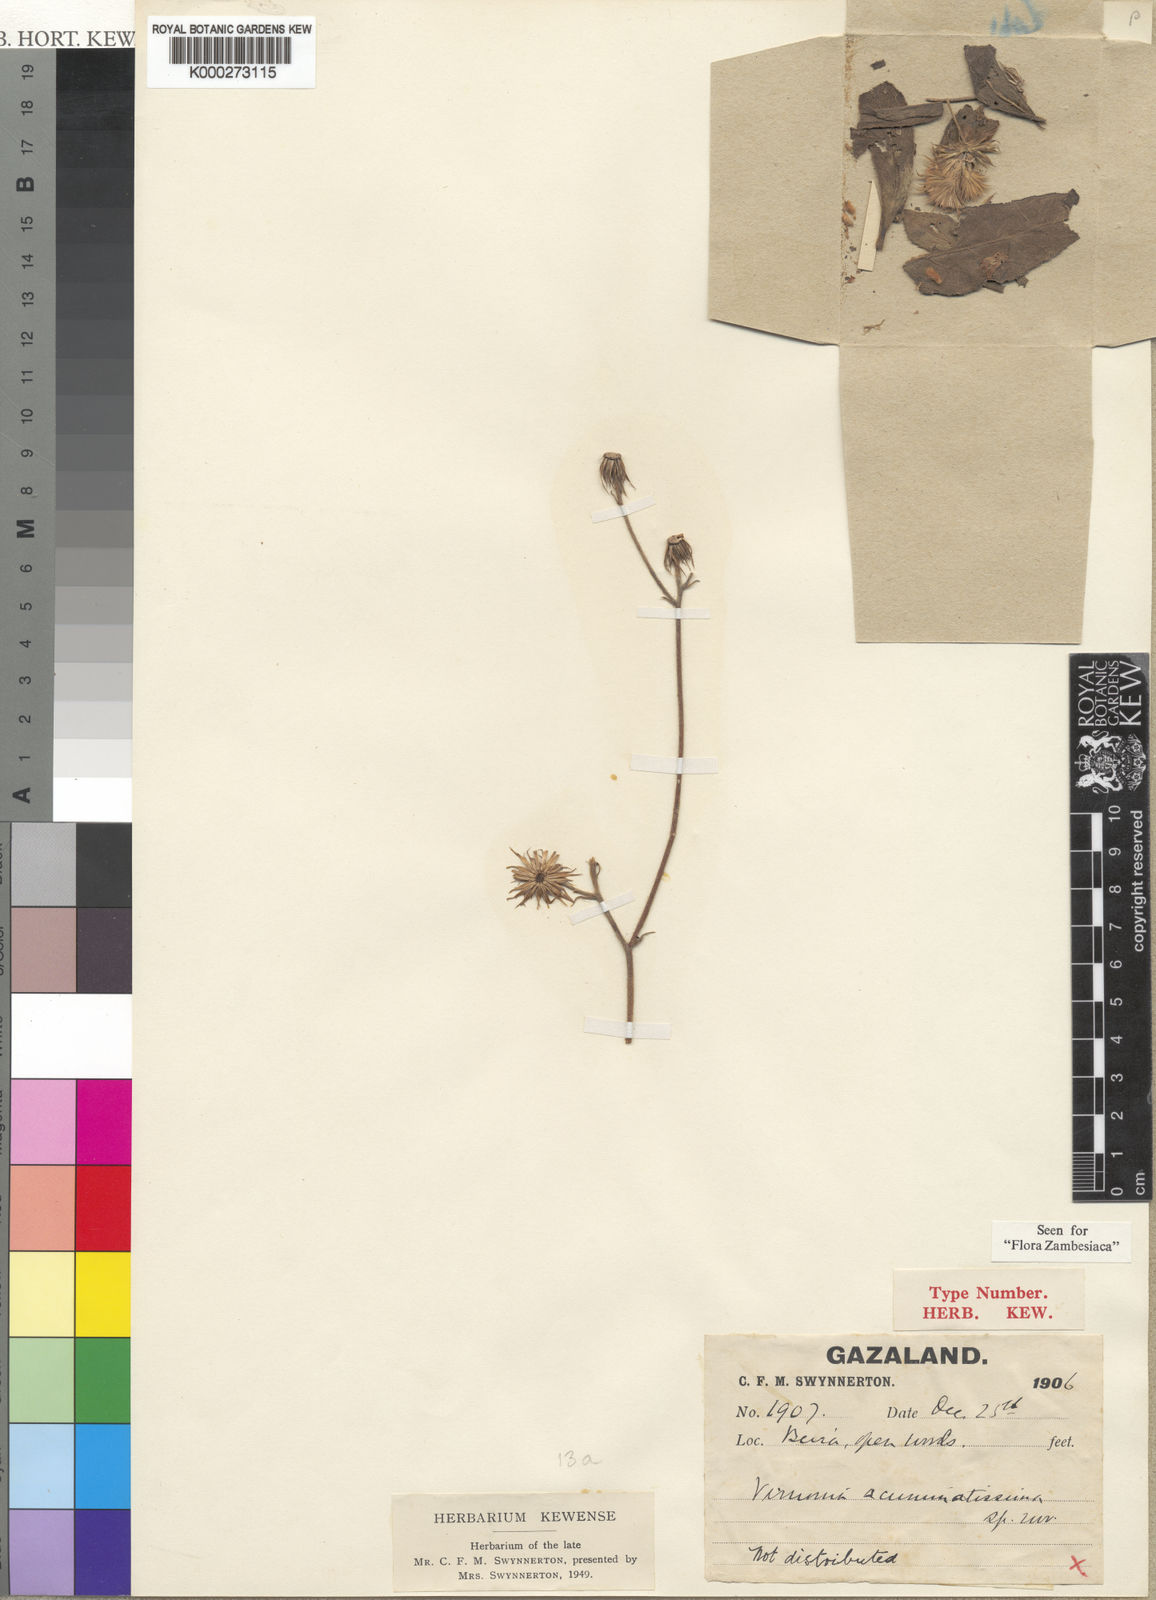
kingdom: Plantae
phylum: Tracheophyta
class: Magnoliopsida
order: Asterales
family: Asteraceae
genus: Vernonia
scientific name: Vernonia
